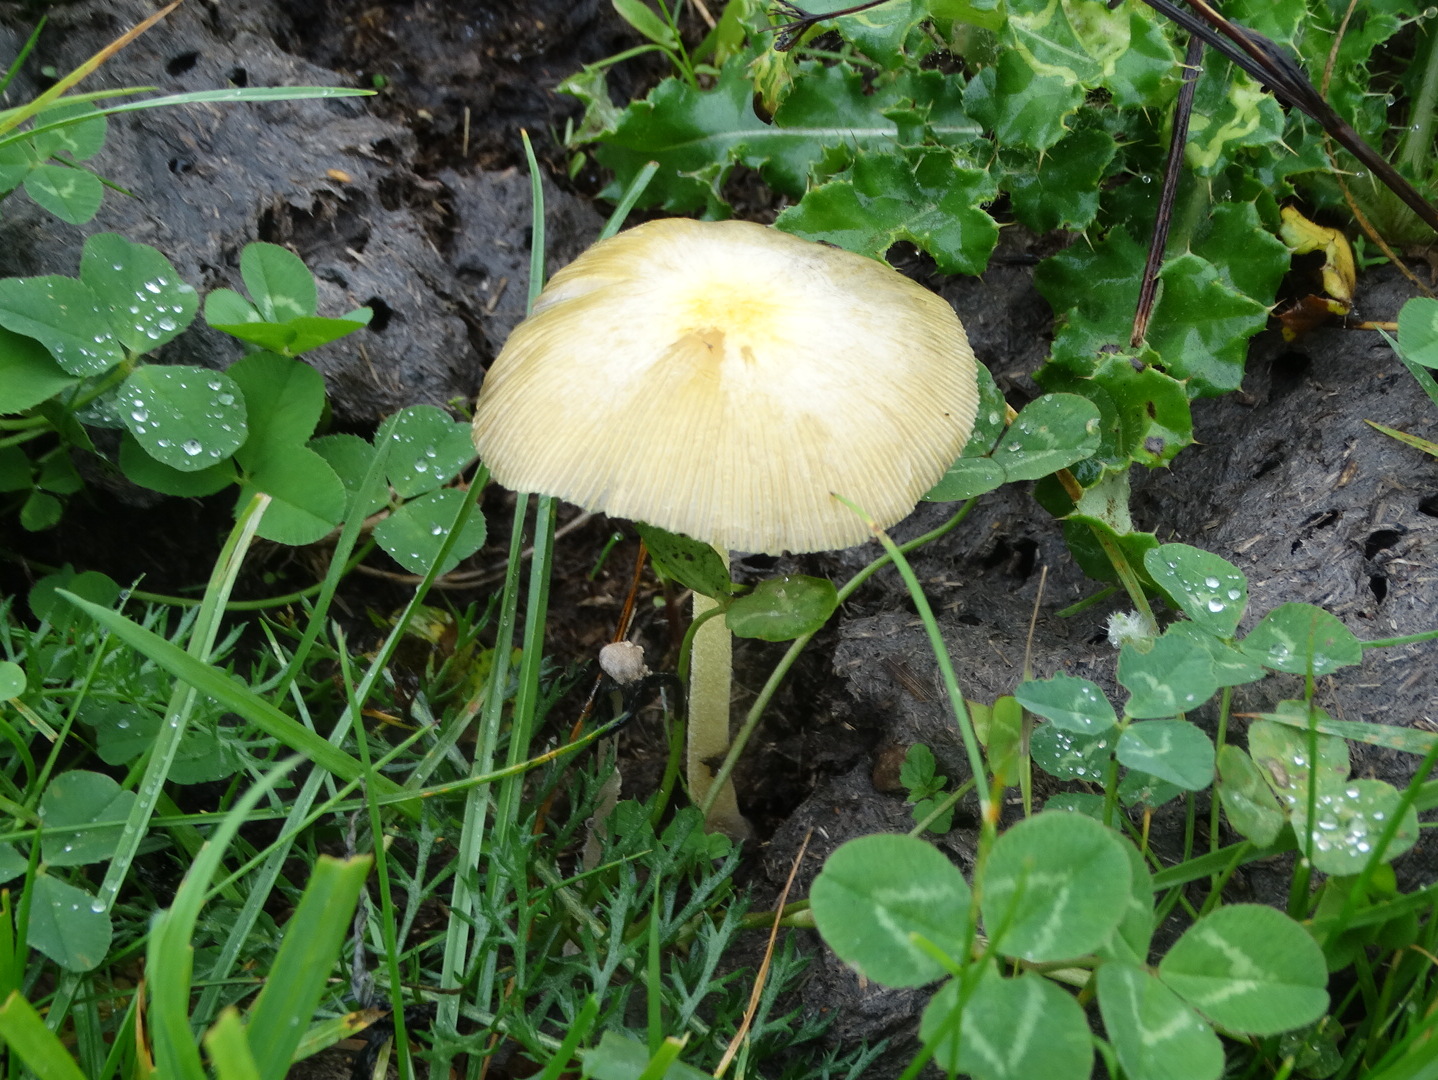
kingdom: Fungi
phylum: Basidiomycota
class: Agaricomycetes
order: Agaricales
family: Bolbitiaceae
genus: Bolbitius
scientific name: Bolbitius titubans
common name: almindelig gulhat
